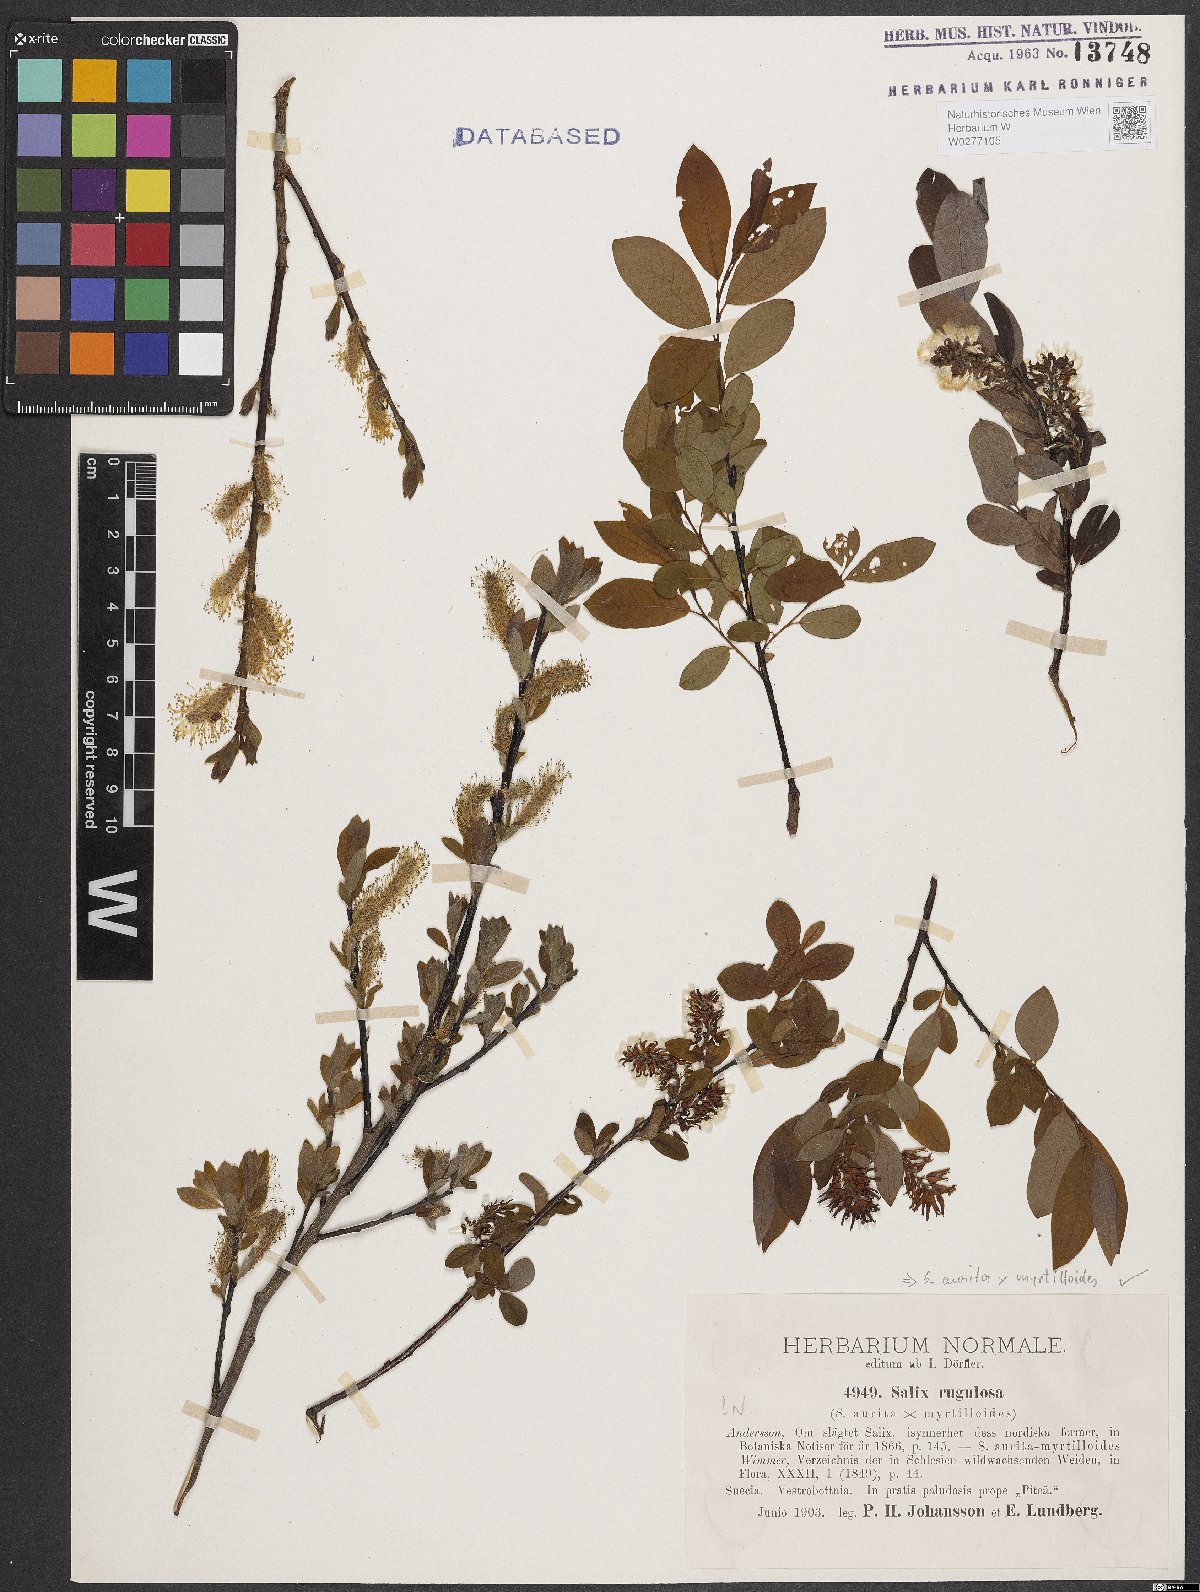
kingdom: Plantae
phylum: Tracheophyta
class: Magnoliopsida
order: Malpighiales
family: Salicaceae
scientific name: Salicaceae
